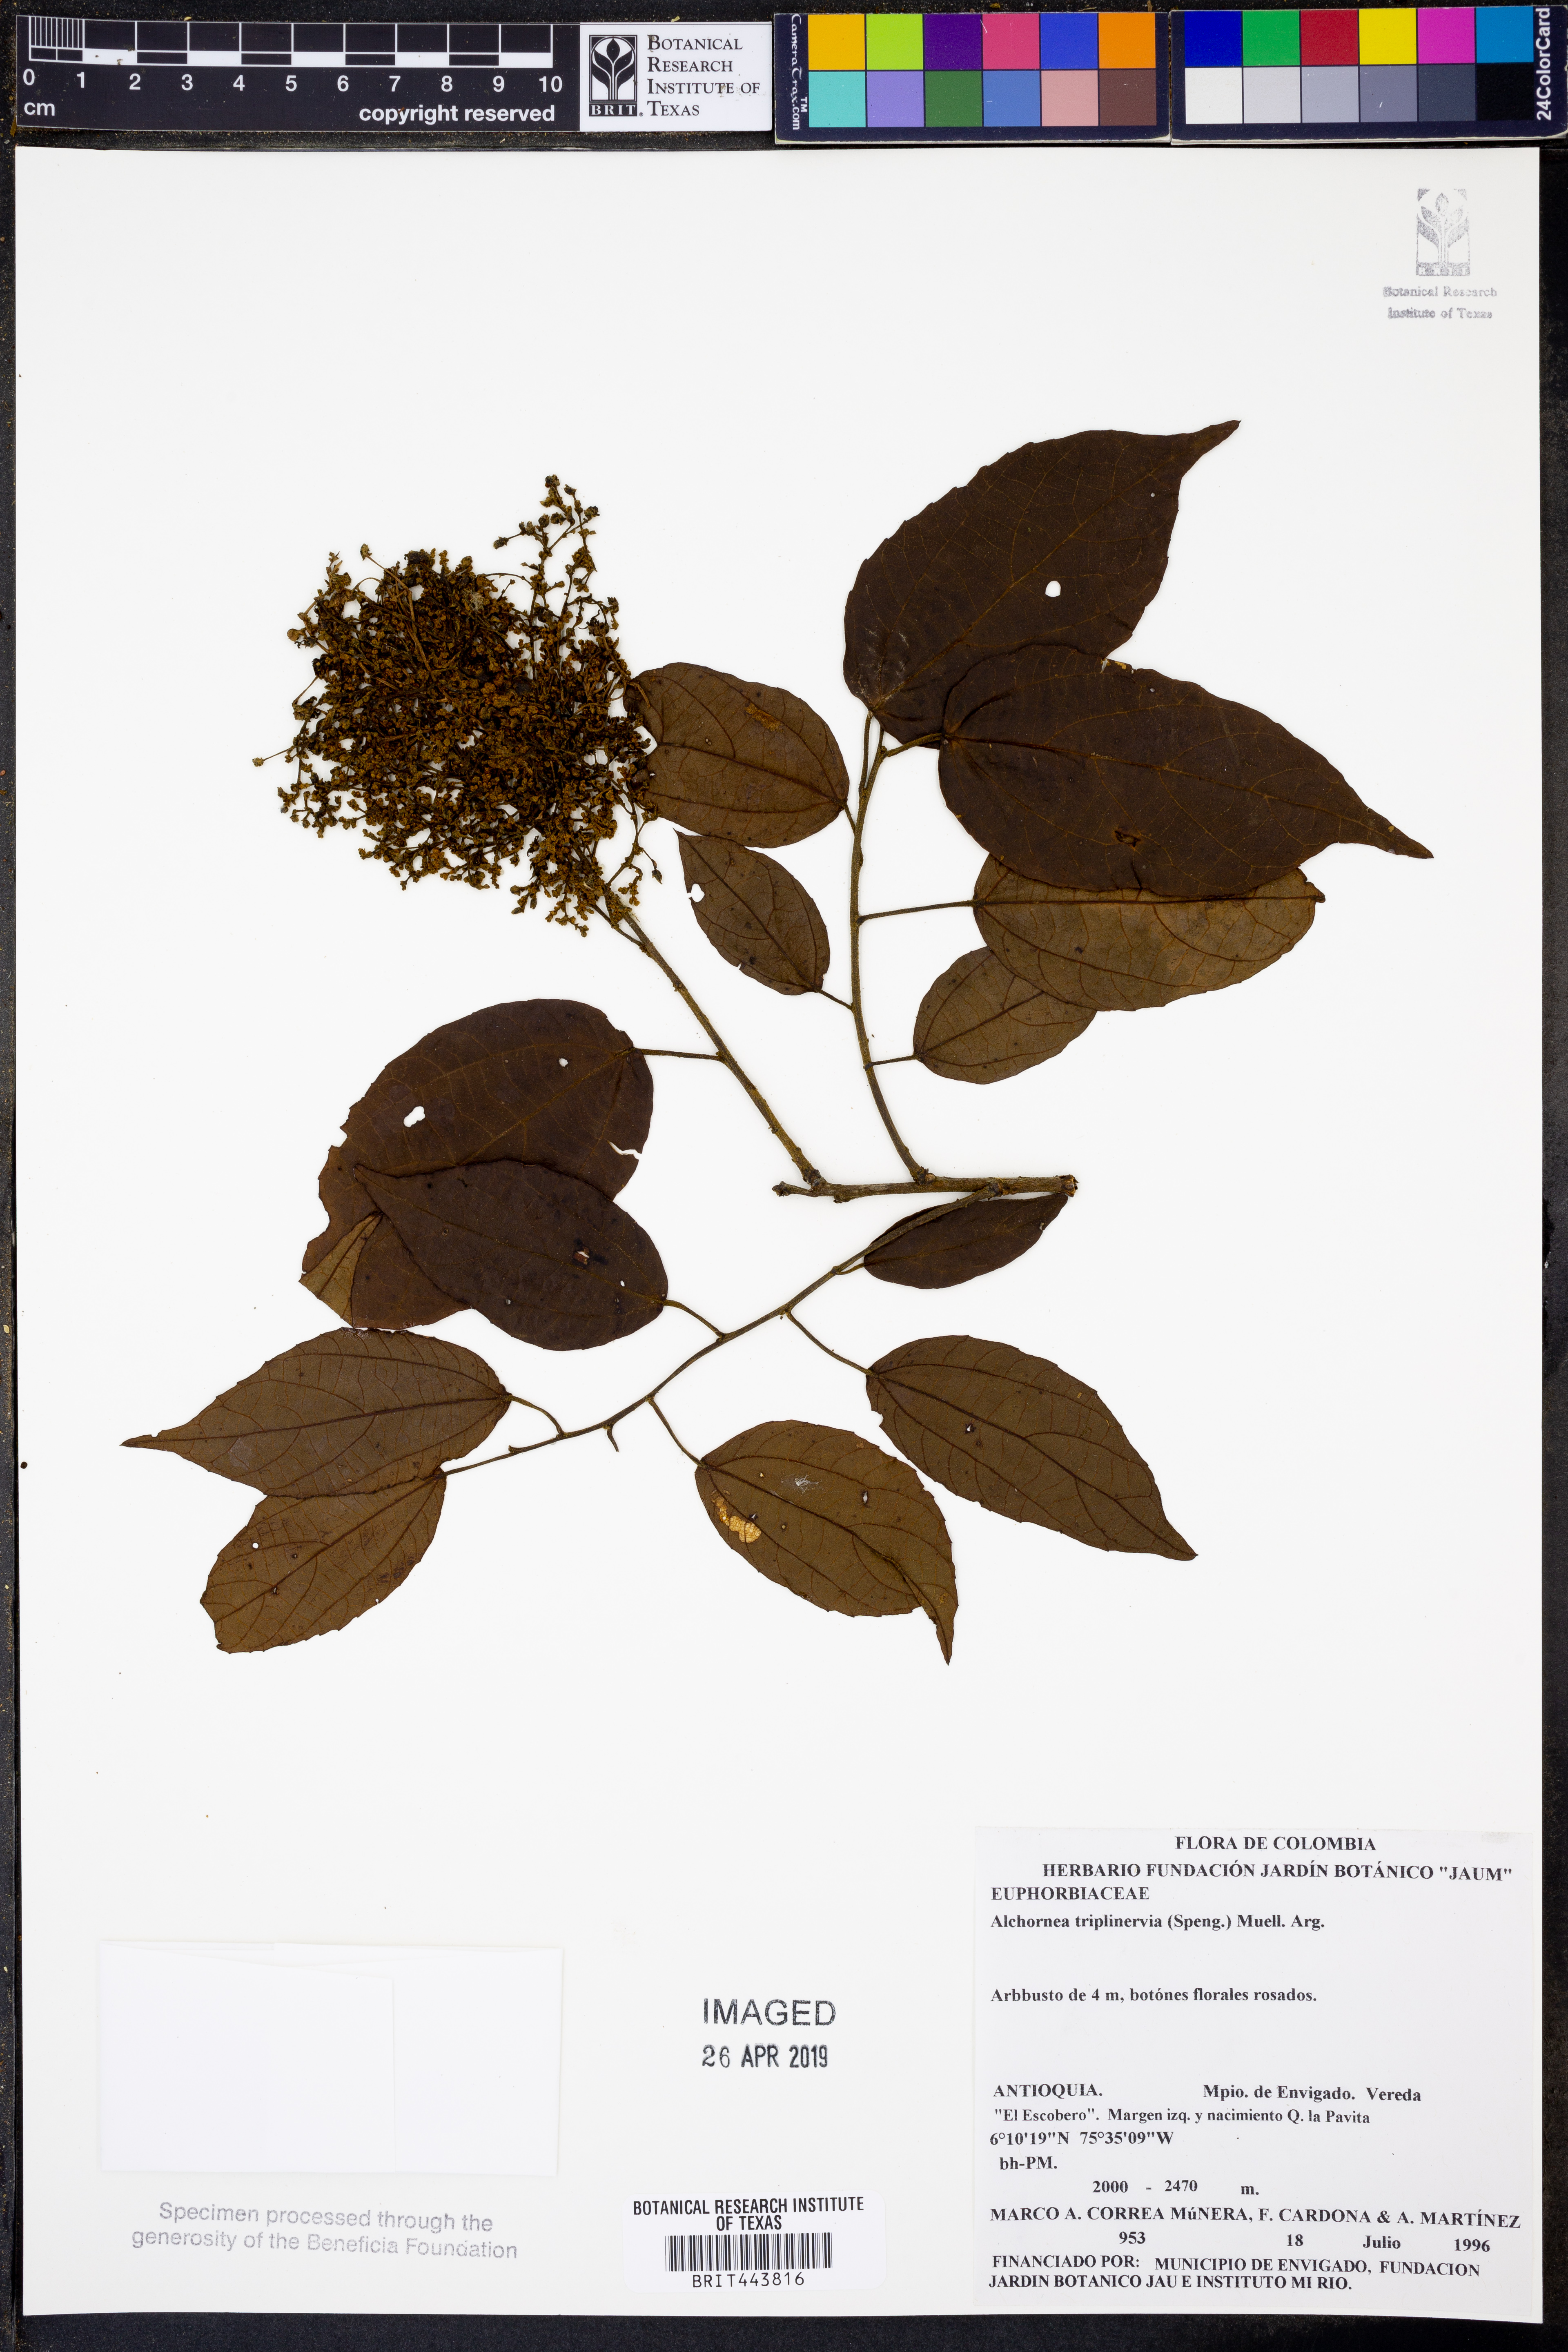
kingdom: Plantae
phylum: Tracheophyta
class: Magnoliopsida
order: Malpighiales
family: Euphorbiaceae
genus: Alchornea
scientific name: Alchornea triplinervia
